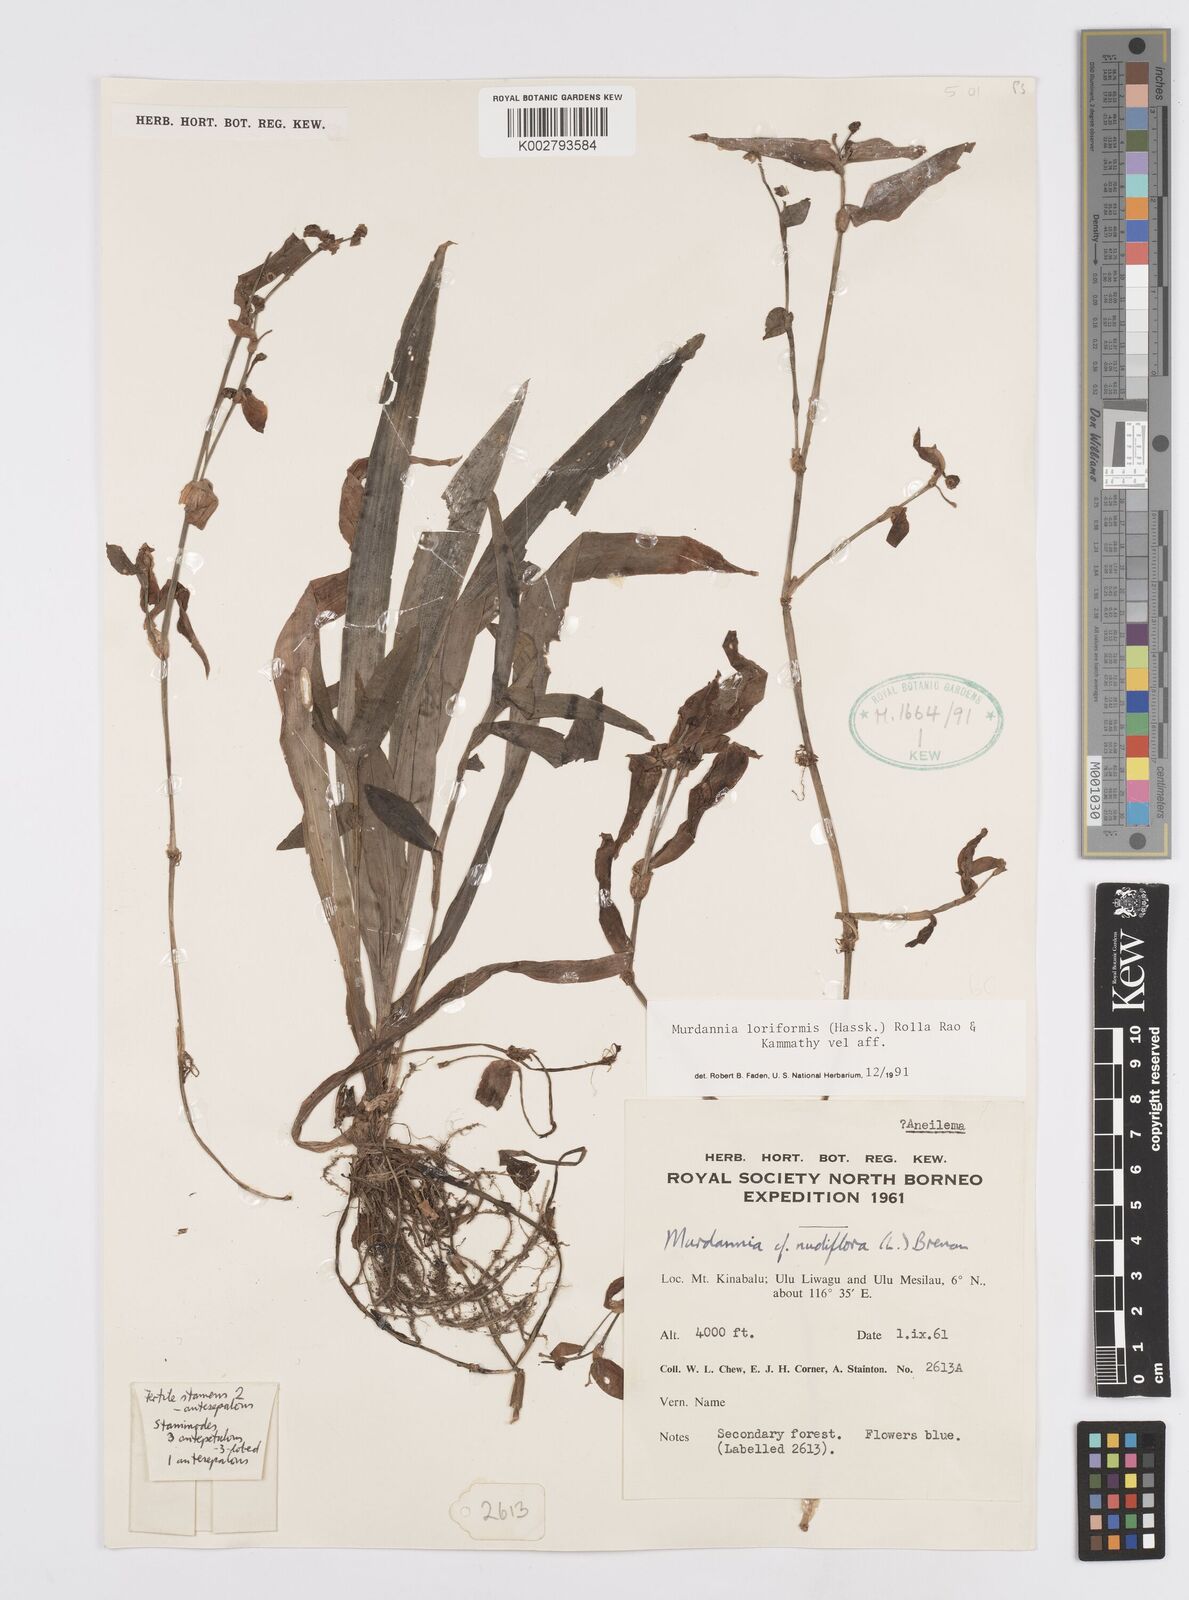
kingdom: Plantae
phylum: Tracheophyta
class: Liliopsida
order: Commelinales
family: Commelinaceae
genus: Murdannia
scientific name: Murdannia loriformis
